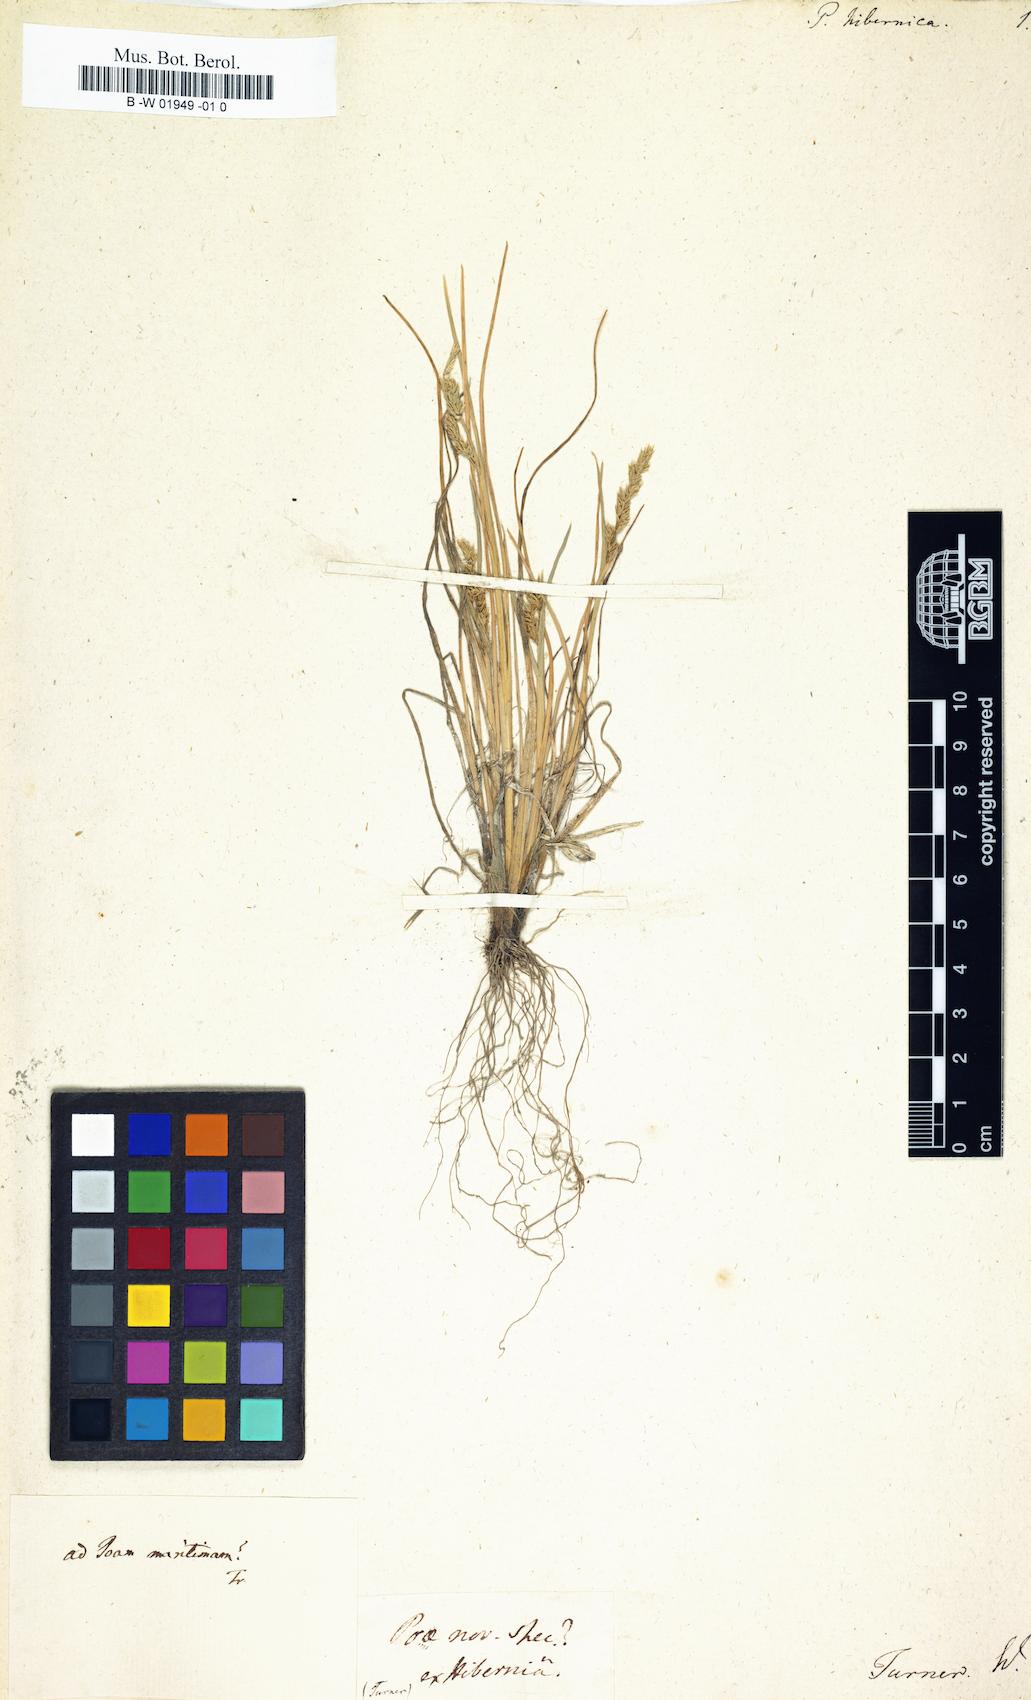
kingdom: Plantae
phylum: Tracheophyta
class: Liliopsida
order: Poales
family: Poaceae
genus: Puccinellia
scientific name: Puccinellia distans
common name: Weeping alkaligrass
